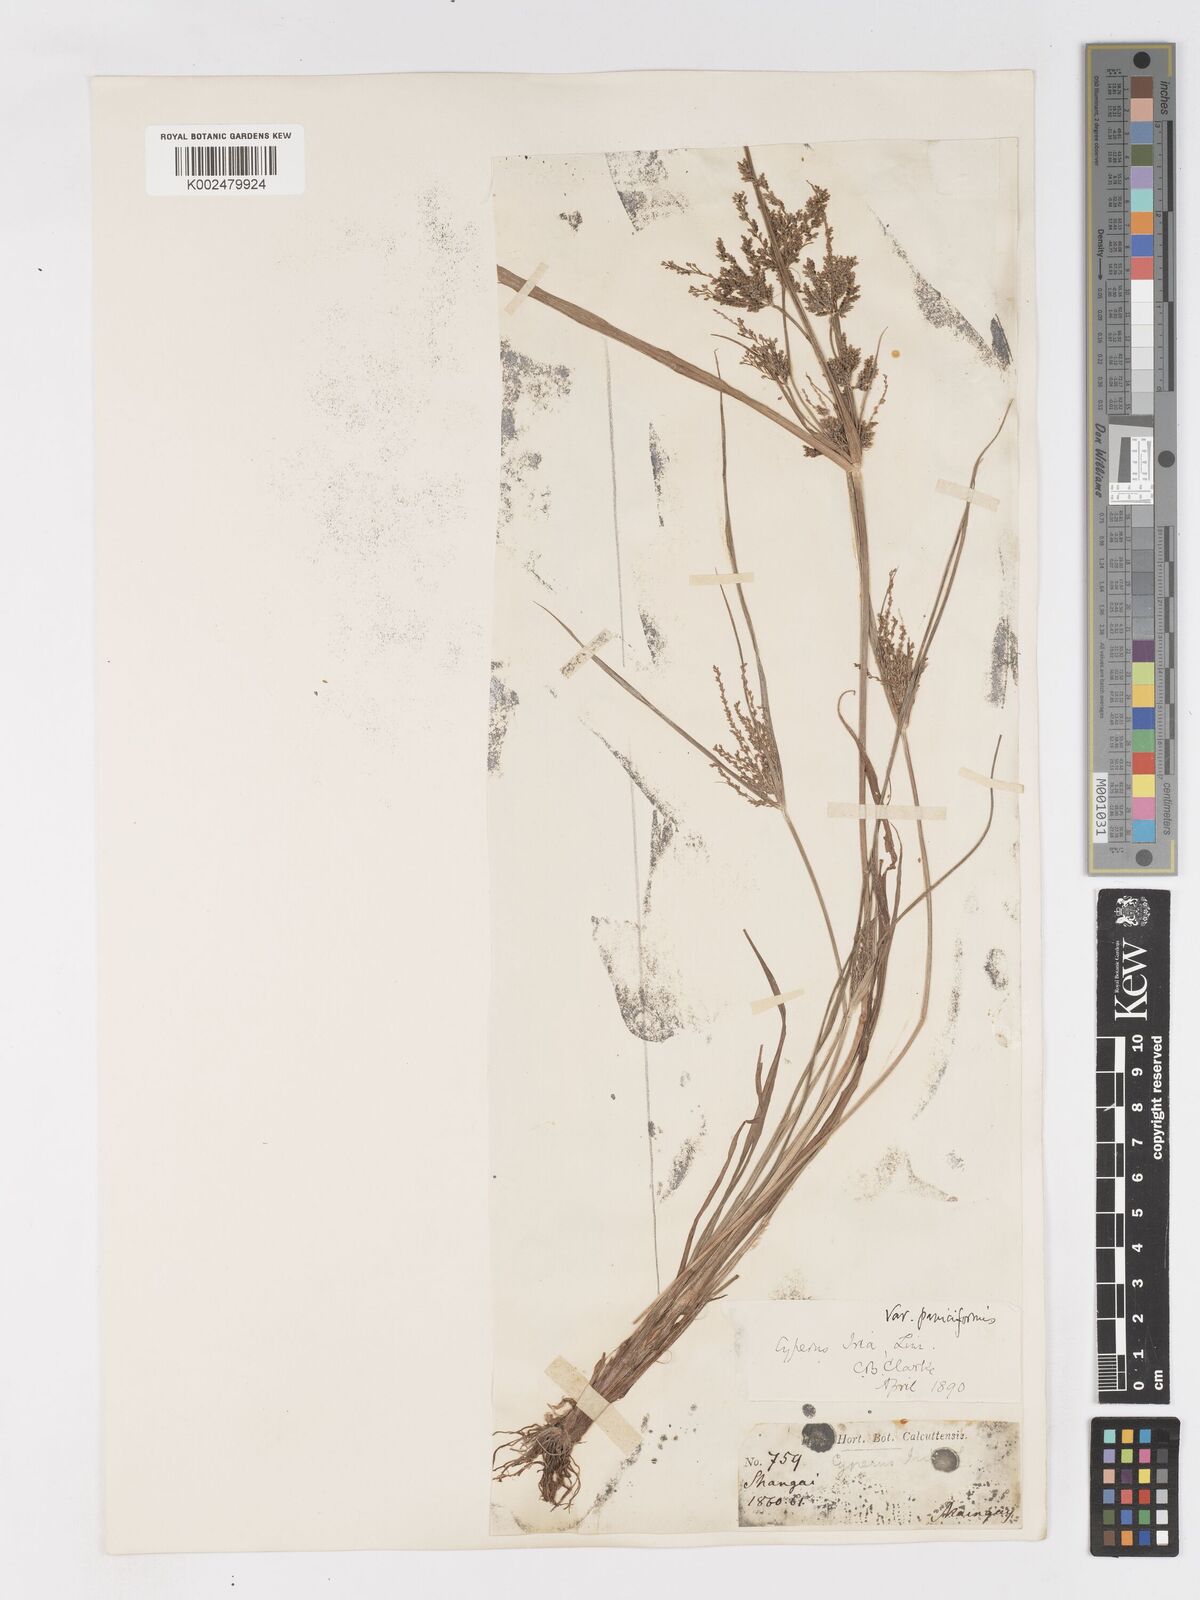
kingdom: Plantae
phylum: Tracheophyta
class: Liliopsida
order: Poales
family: Cyperaceae
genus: Cyperus
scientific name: Cyperus iria
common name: Ricefield flatsedge
